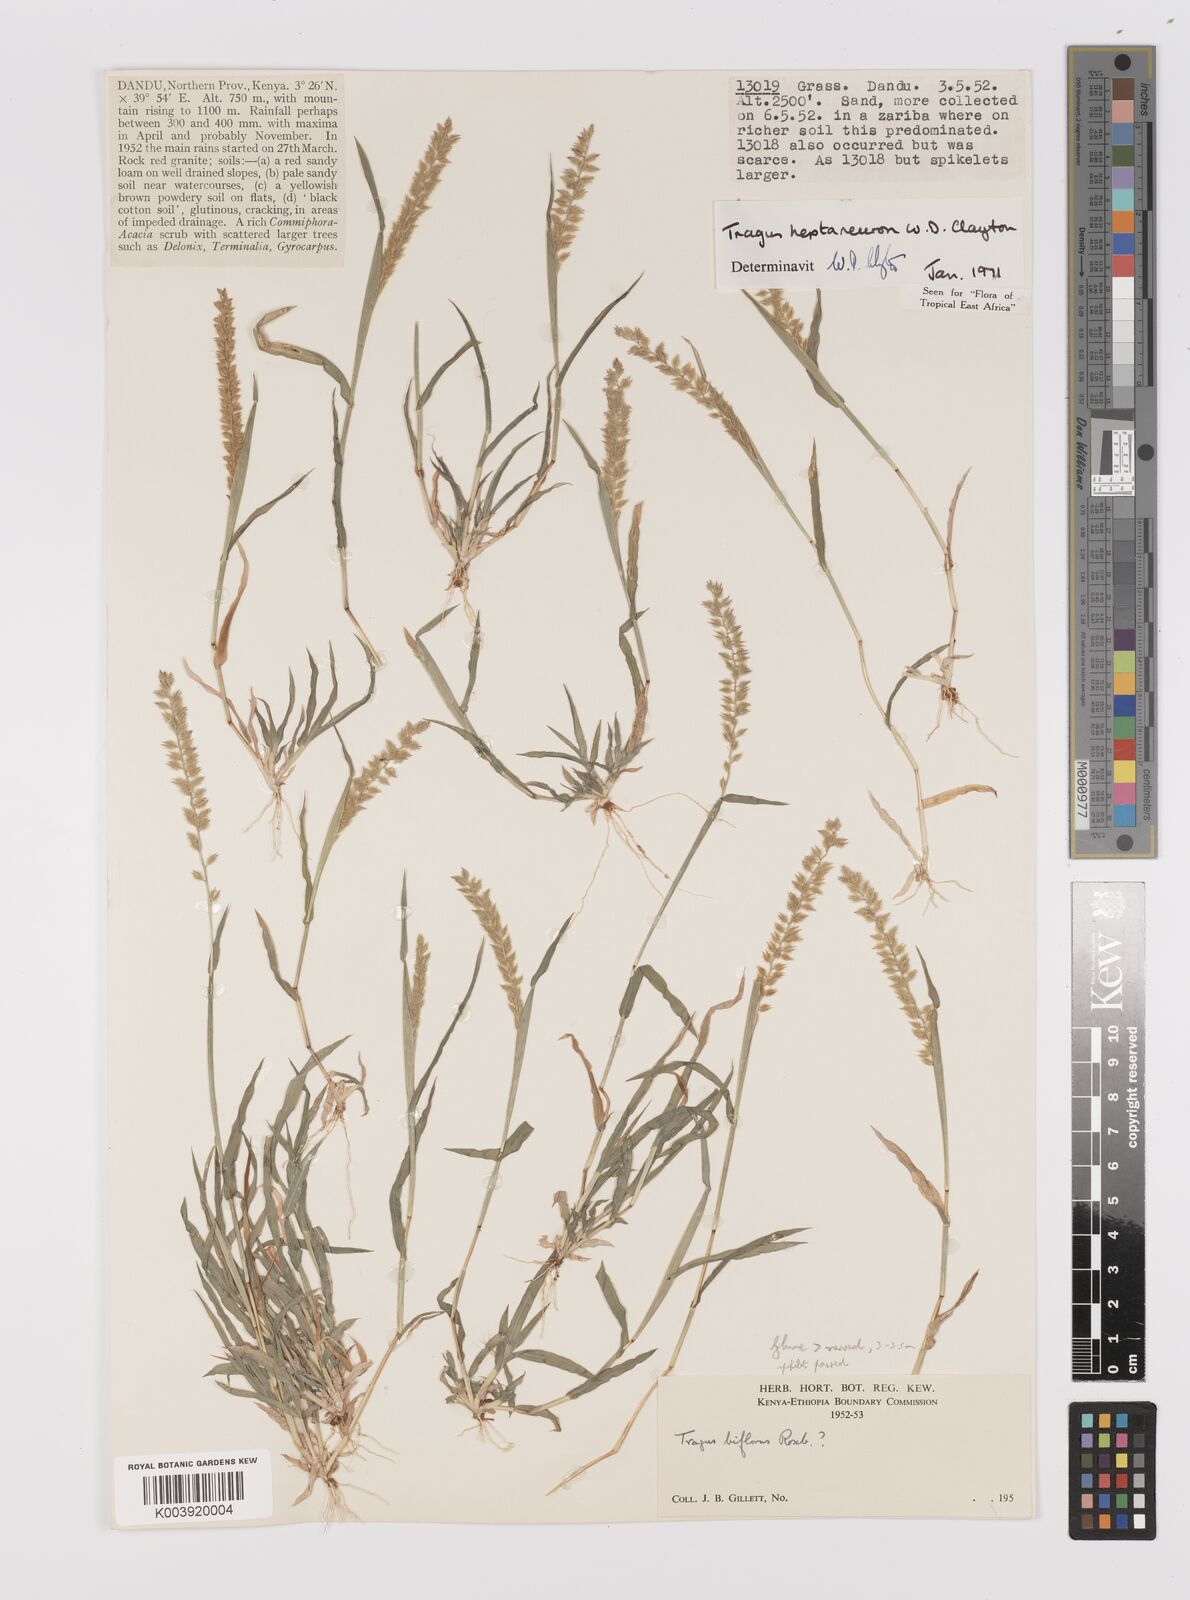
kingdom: Plantae
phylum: Tracheophyta
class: Liliopsida
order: Poales
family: Poaceae
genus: Tragus
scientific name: Tragus heptaneuron
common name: Kenya bur grass
